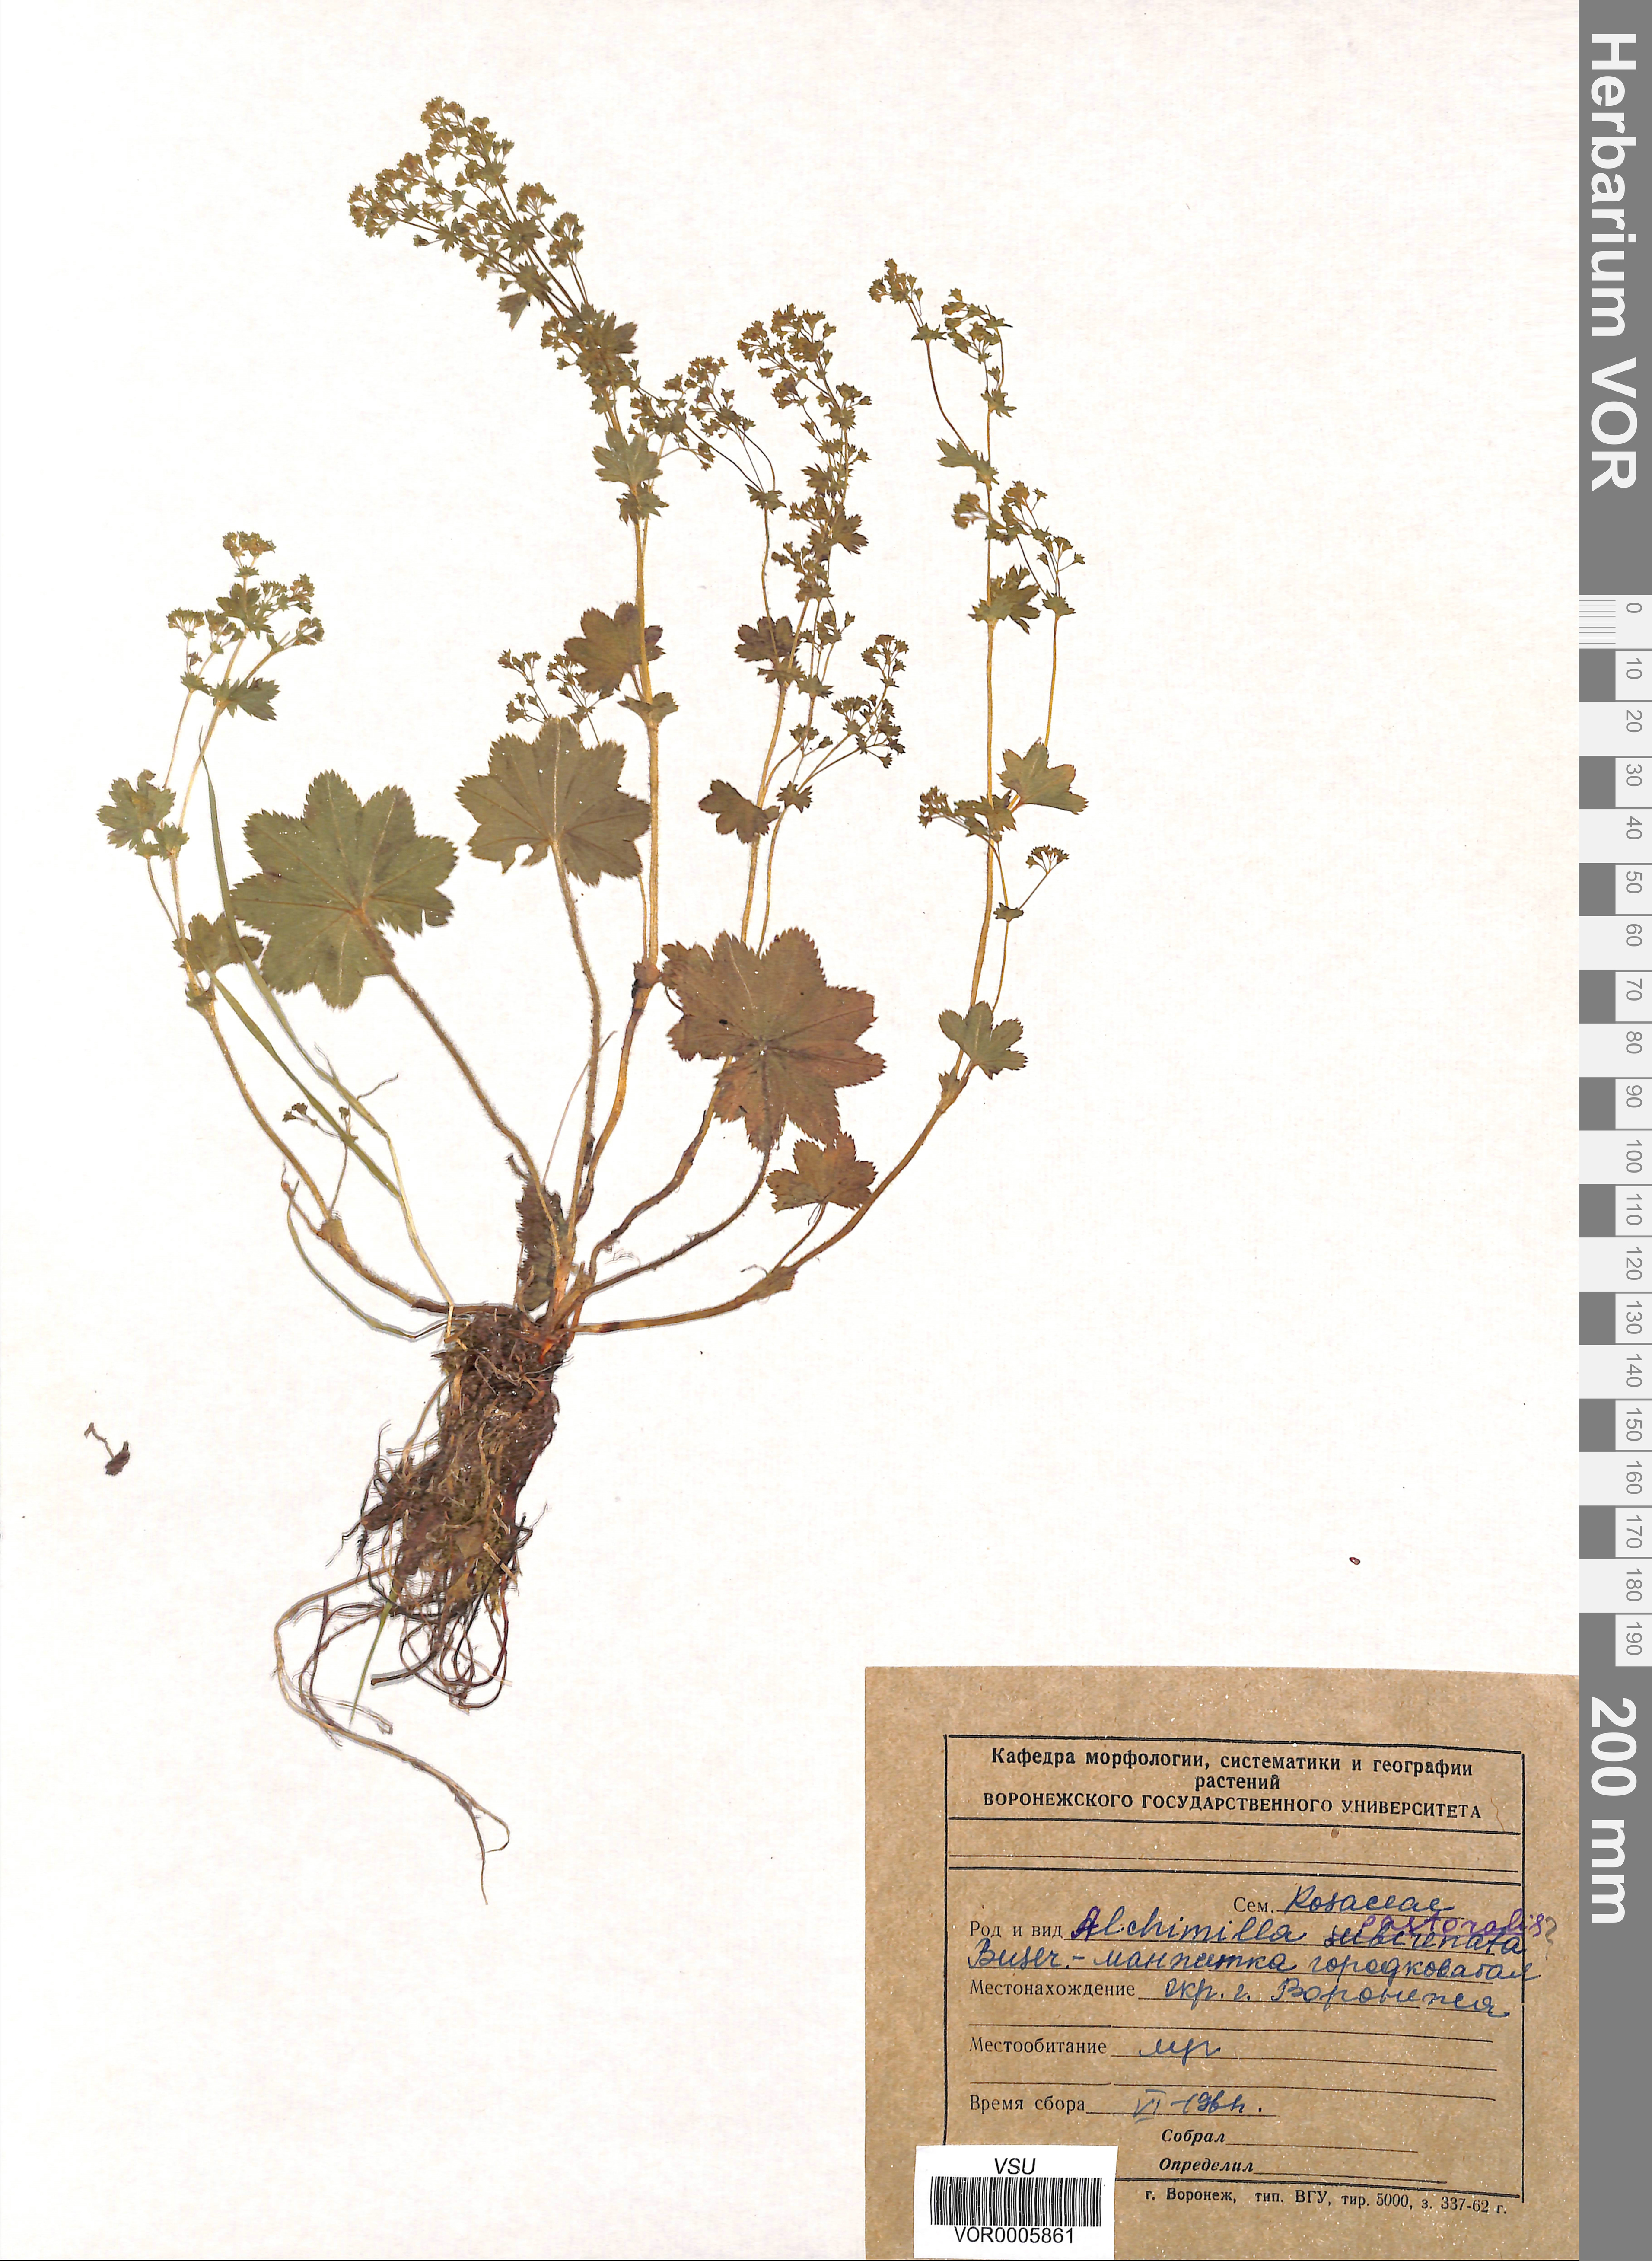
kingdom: Plantae
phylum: Tracheophyta
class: Magnoliopsida
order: Rosales
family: Rosaceae
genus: Alchemilla
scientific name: Alchemilla monticola
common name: Hairy lady's mantle
